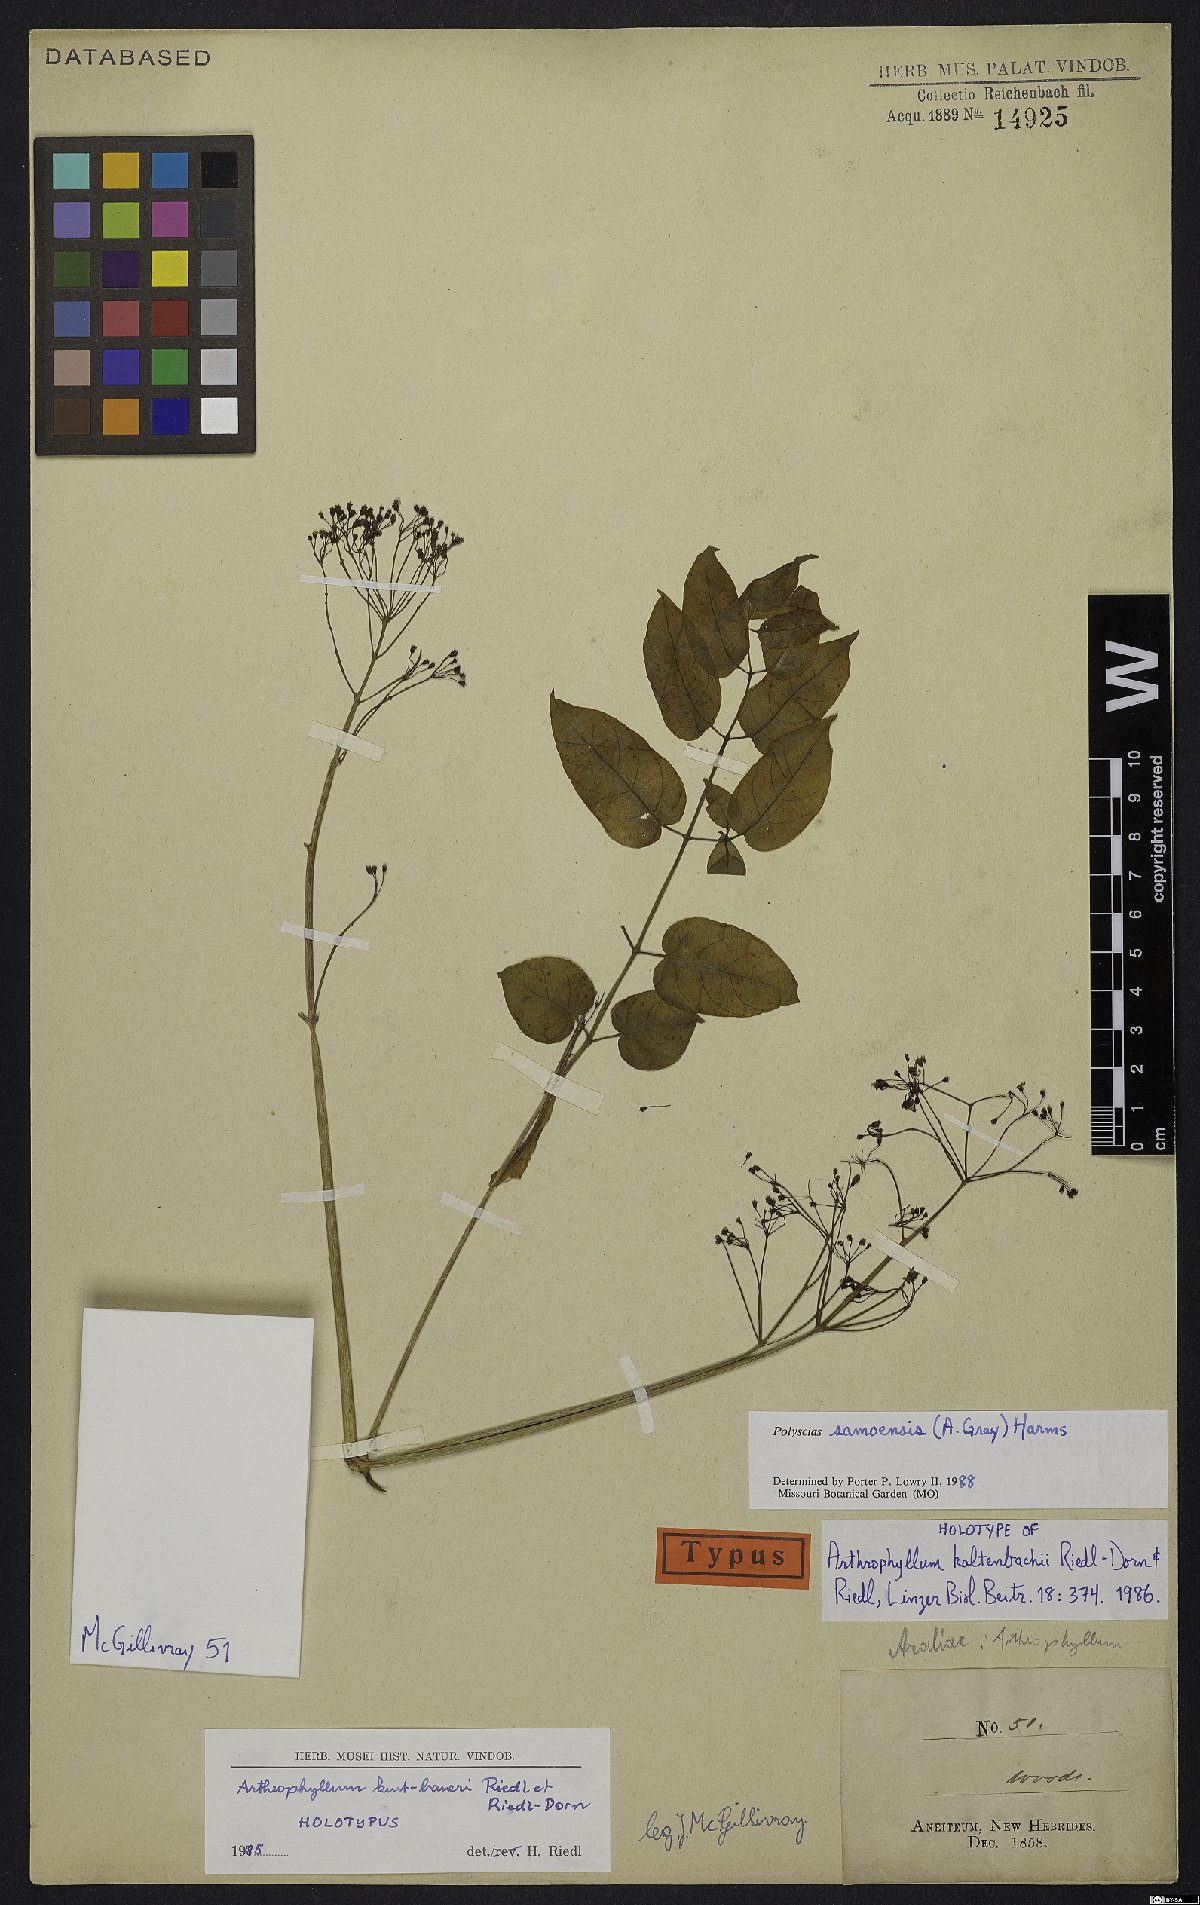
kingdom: Plantae
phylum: Tracheophyta
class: Magnoliopsida
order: Apiales
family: Araliaceae
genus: Polyscias
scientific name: Polyscias samoensis
